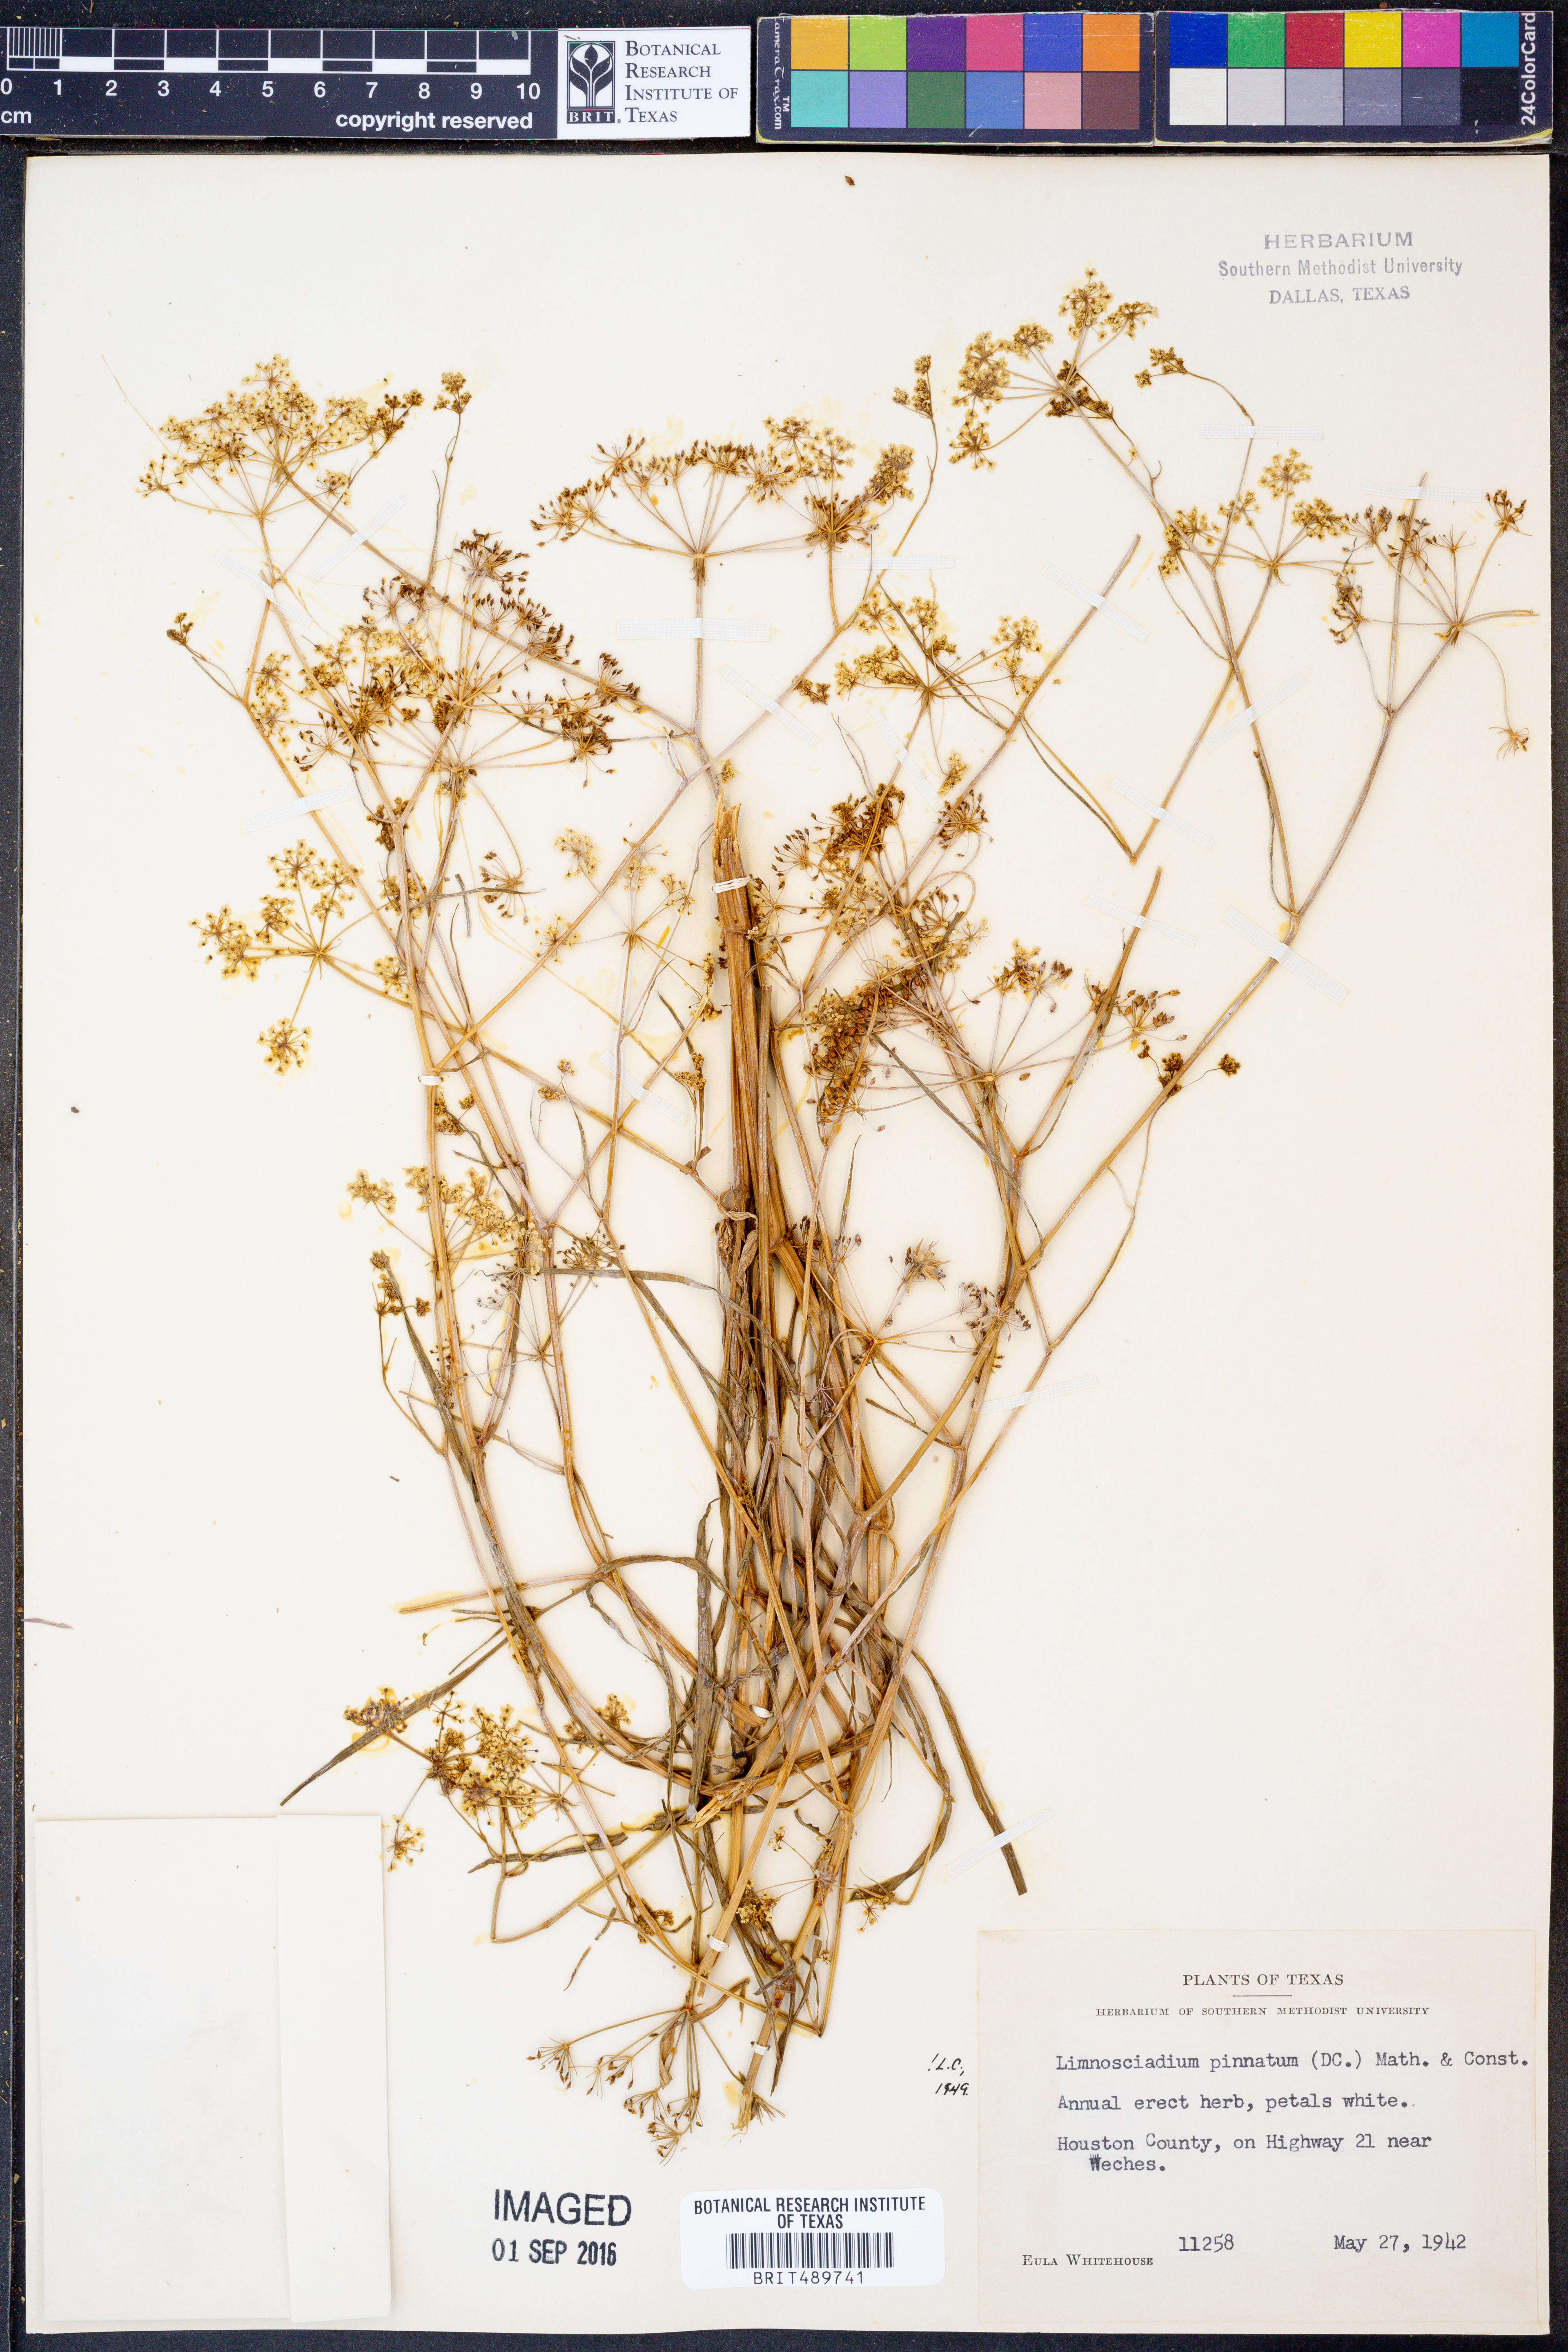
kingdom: Plantae
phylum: Tracheophyta
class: Magnoliopsida
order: Apiales
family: Apiaceae
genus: Limnosciadium
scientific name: Limnosciadium pinnatum
